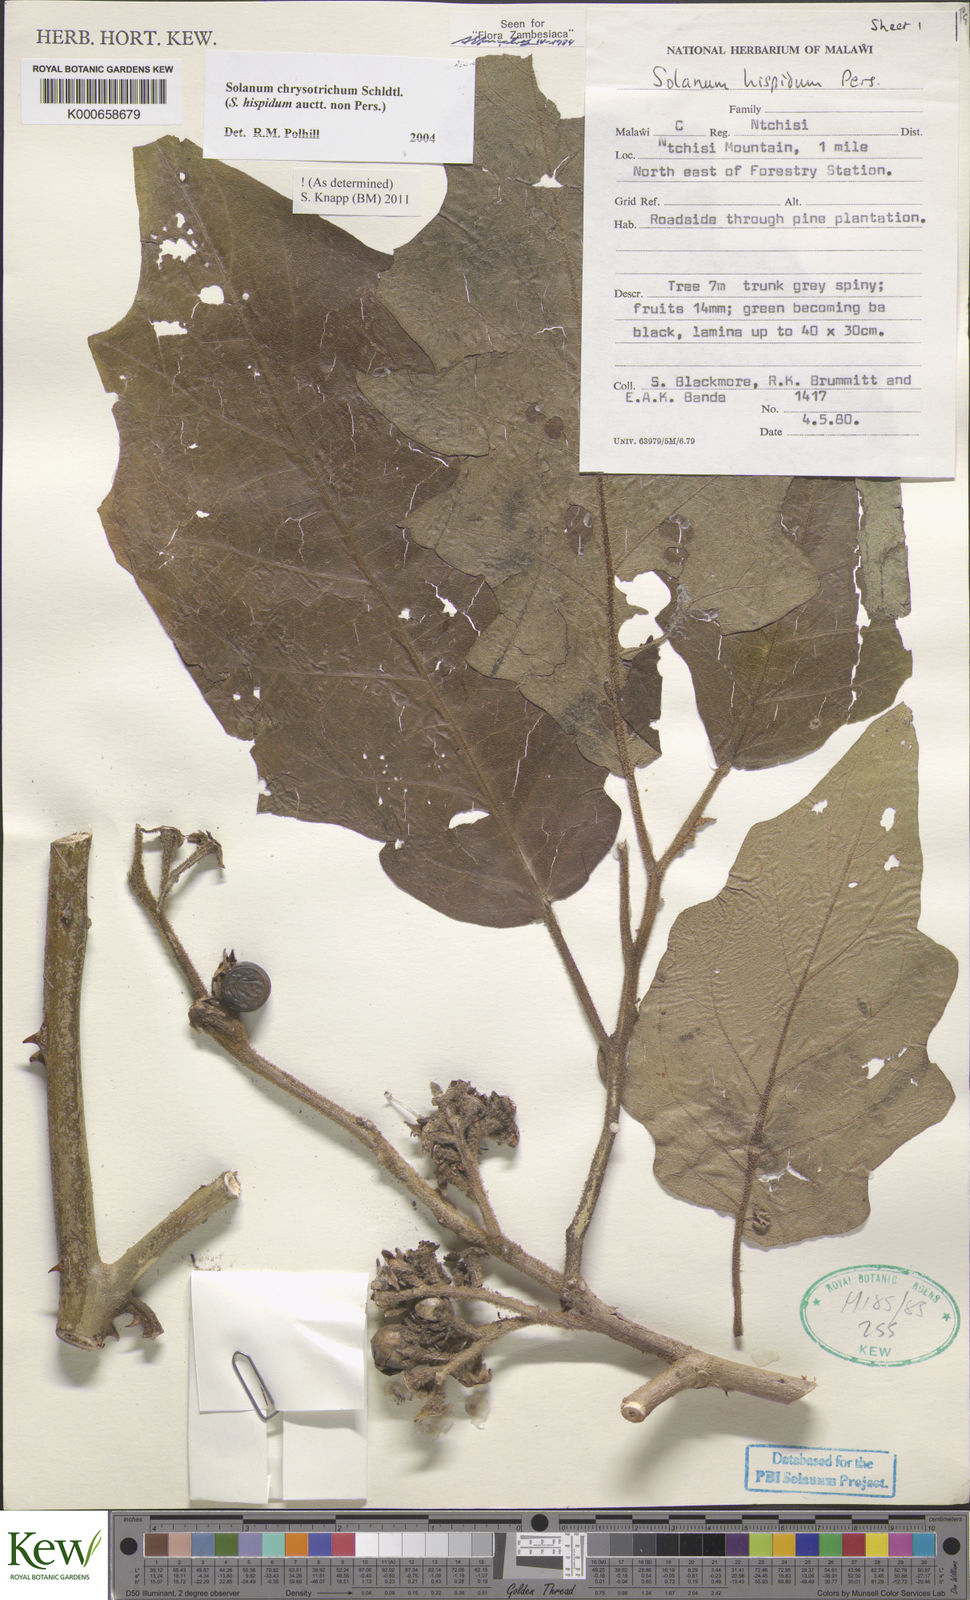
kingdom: Plantae
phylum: Tracheophyta
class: Magnoliopsida
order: Solanales
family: Solanaceae
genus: Solanum
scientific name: Solanum chrysotrichum
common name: Nightshade
